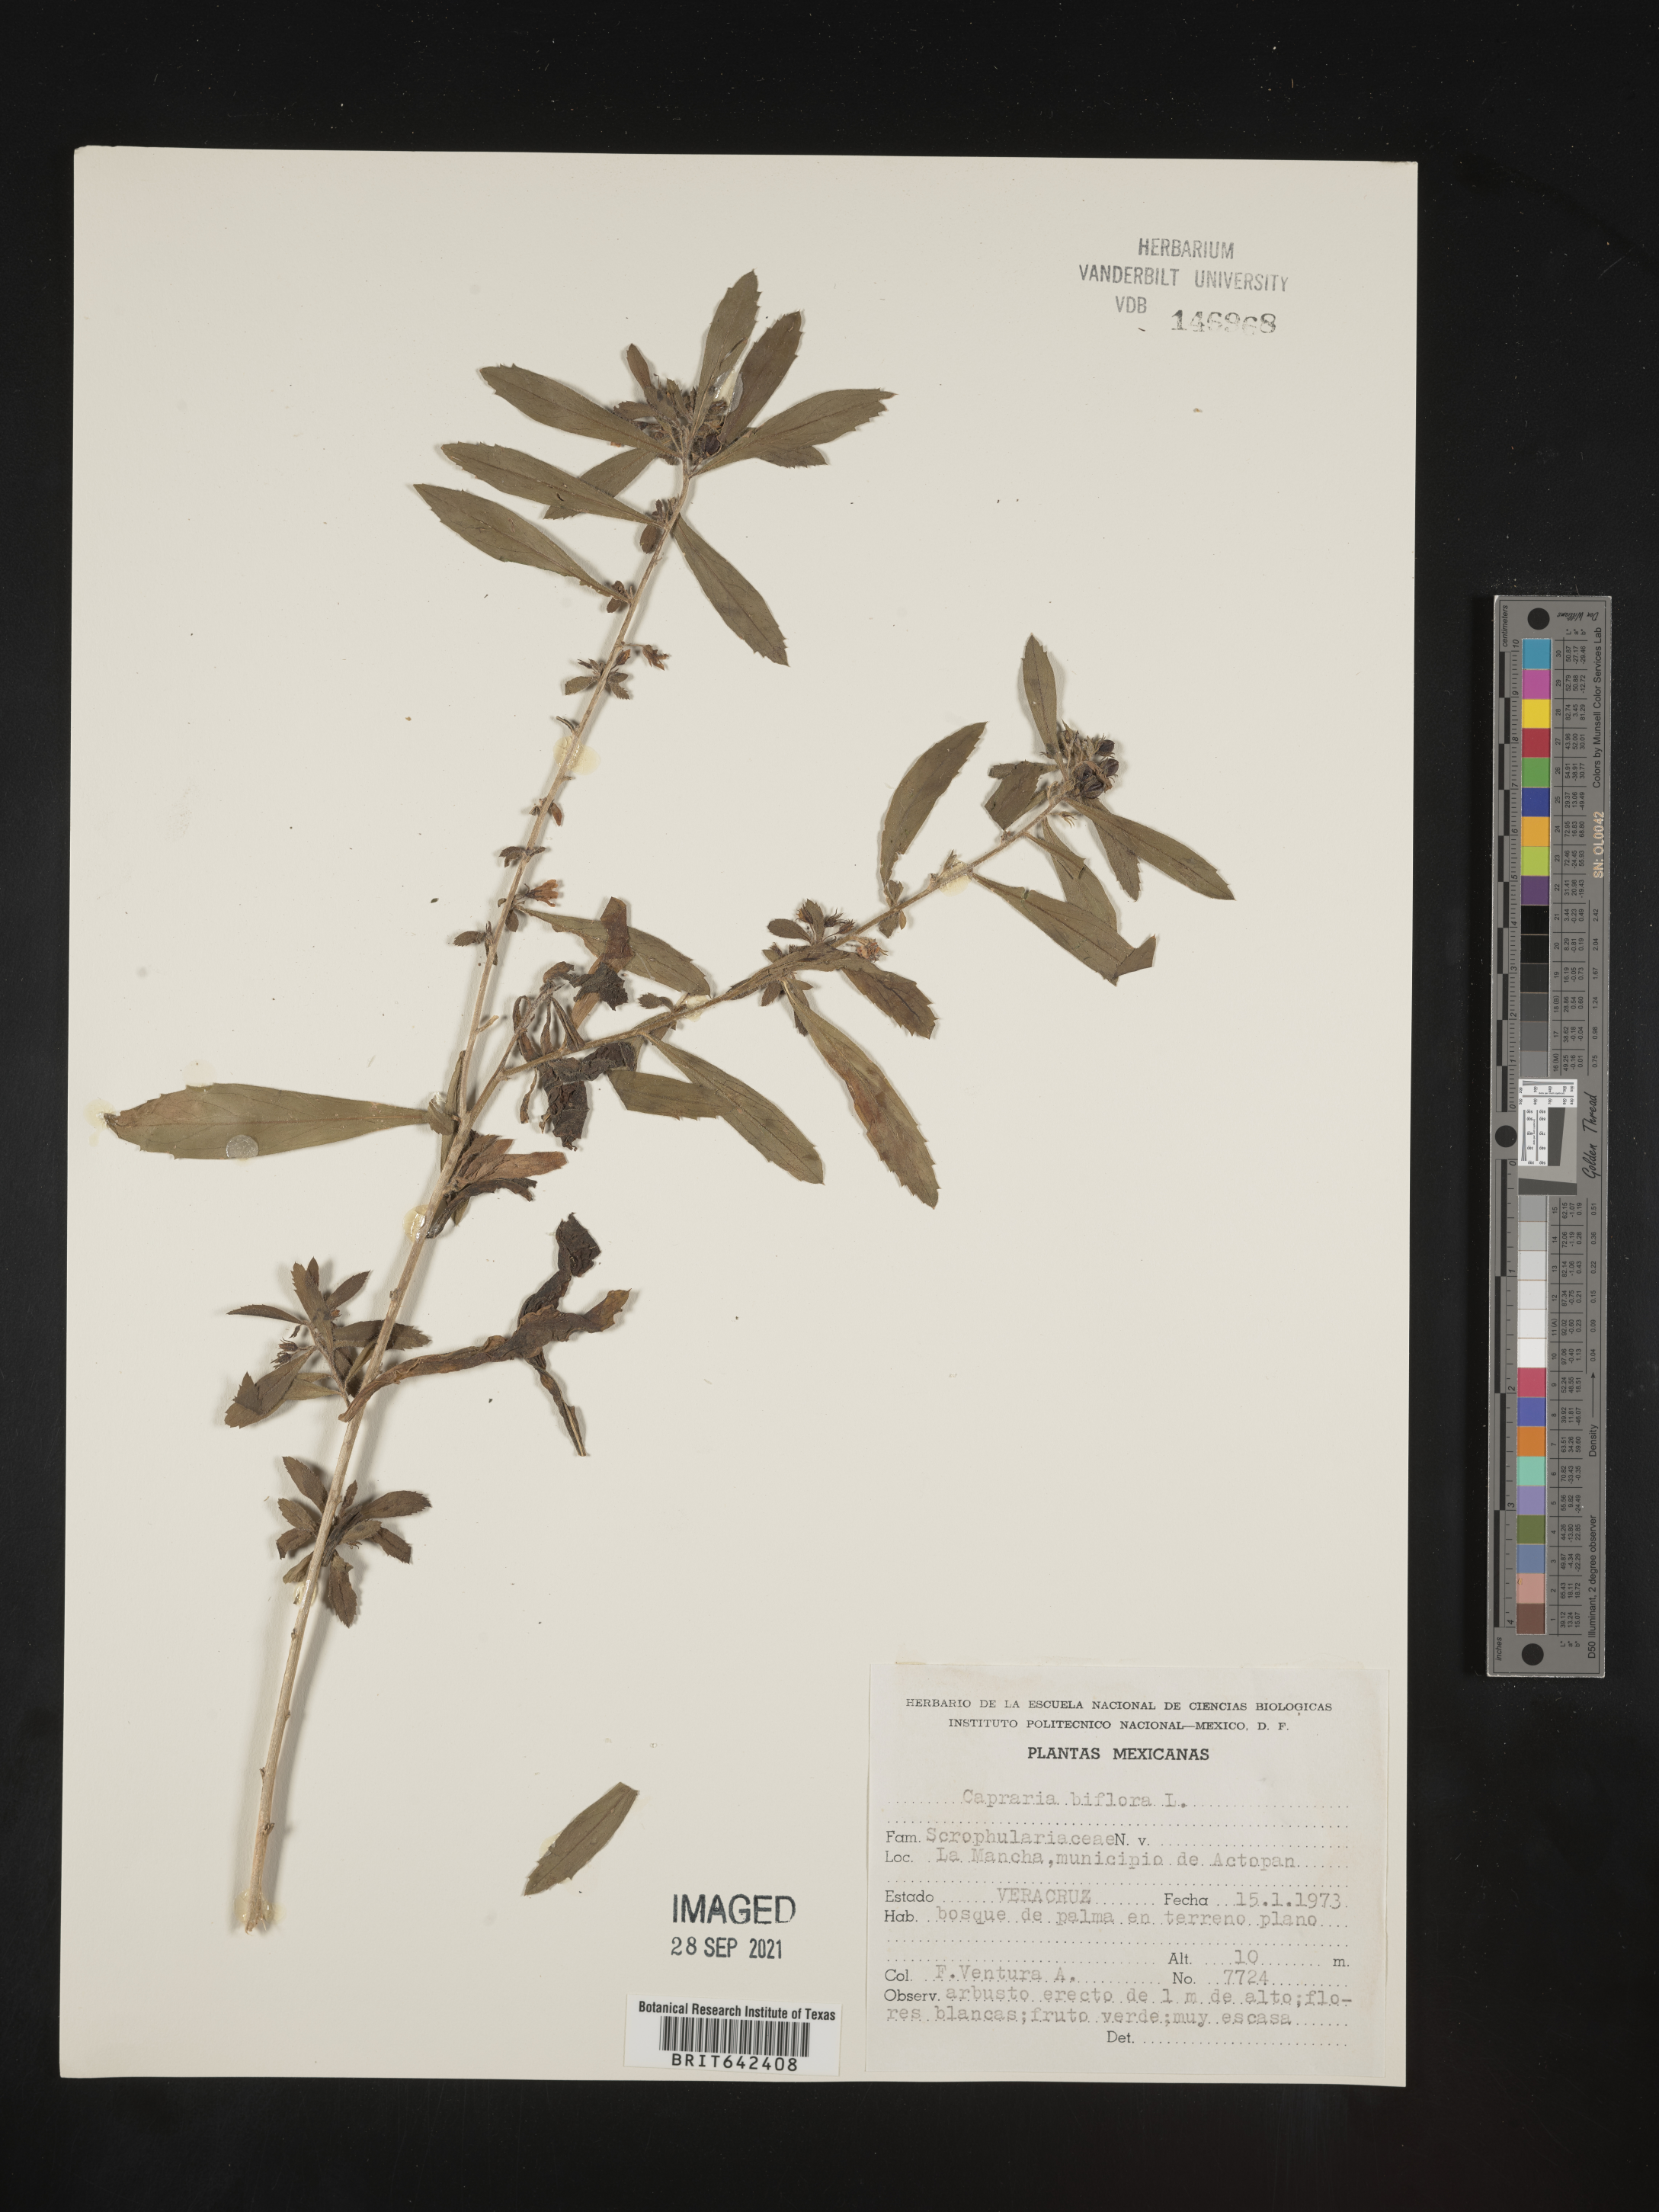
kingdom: Plantae
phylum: Tracheophyta
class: Magnoliopsida
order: Lamiales
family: Scrophulariaceae
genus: Capraria
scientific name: Capraria
